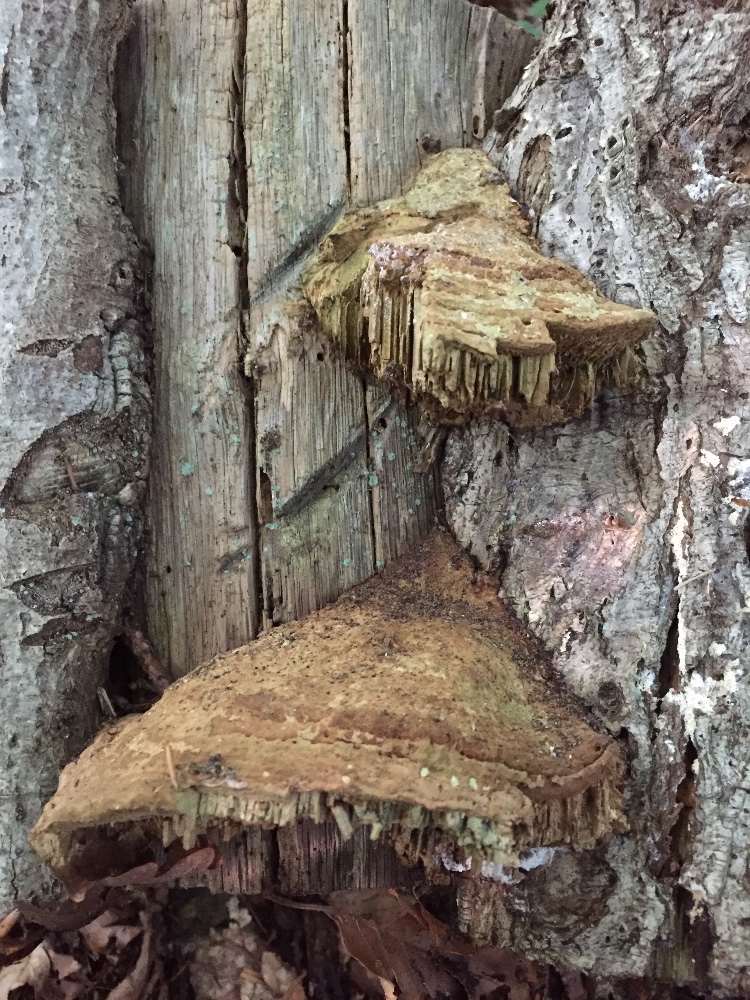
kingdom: Fungi
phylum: Basidiomycota
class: Agaricomycetes
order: Polyporales
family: Fomitopsidaceae
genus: Daedalea
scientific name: Daedalea quercina
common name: ege-labyrintsvamp
